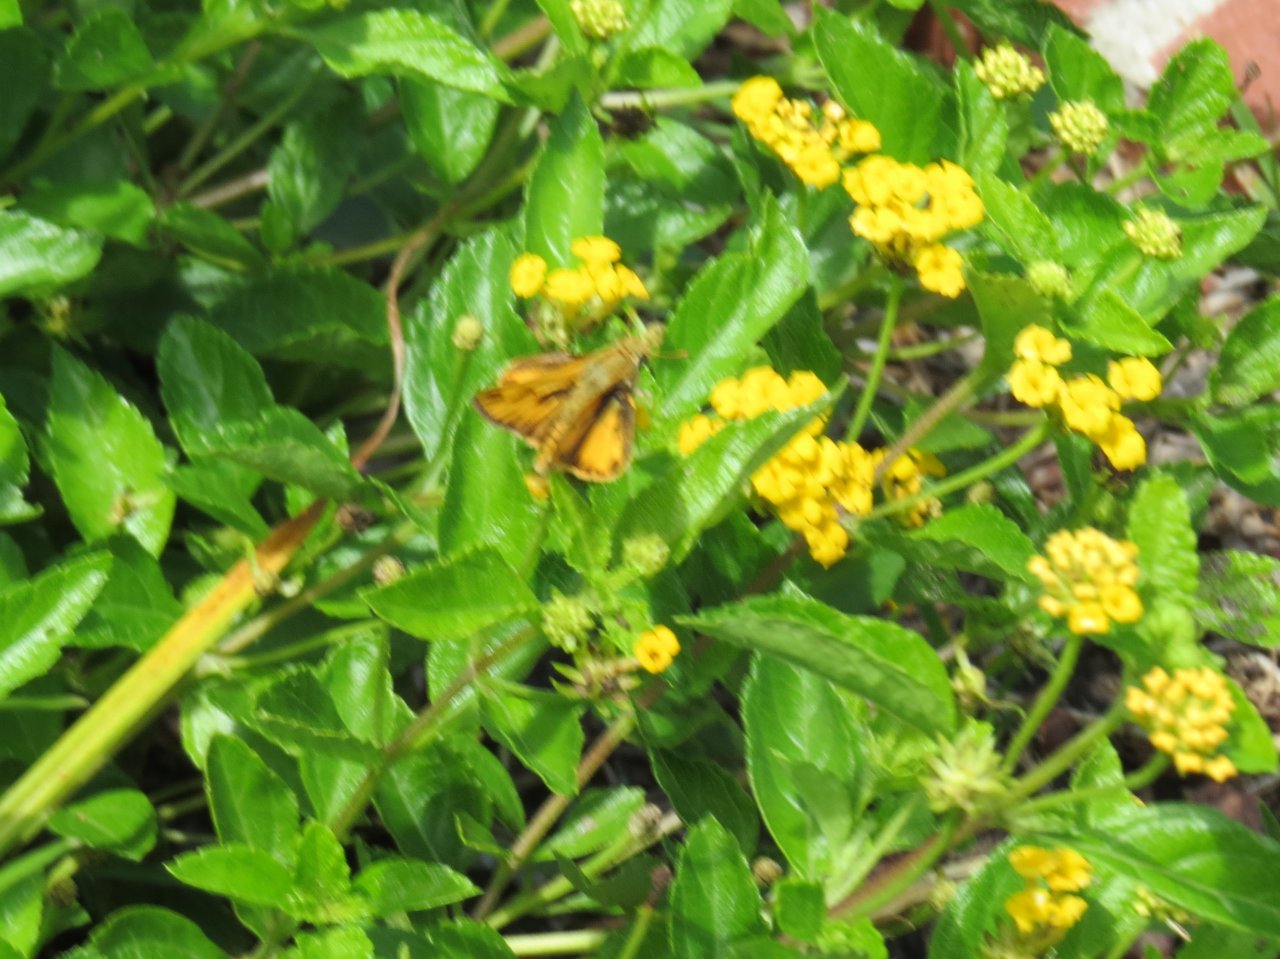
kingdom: Animalia
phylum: Arthropoda
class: Insecta
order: Lepidoptera
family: Hesperiidae
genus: Hylephila
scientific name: Hylephila phyleus
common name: Fiery Skipper
